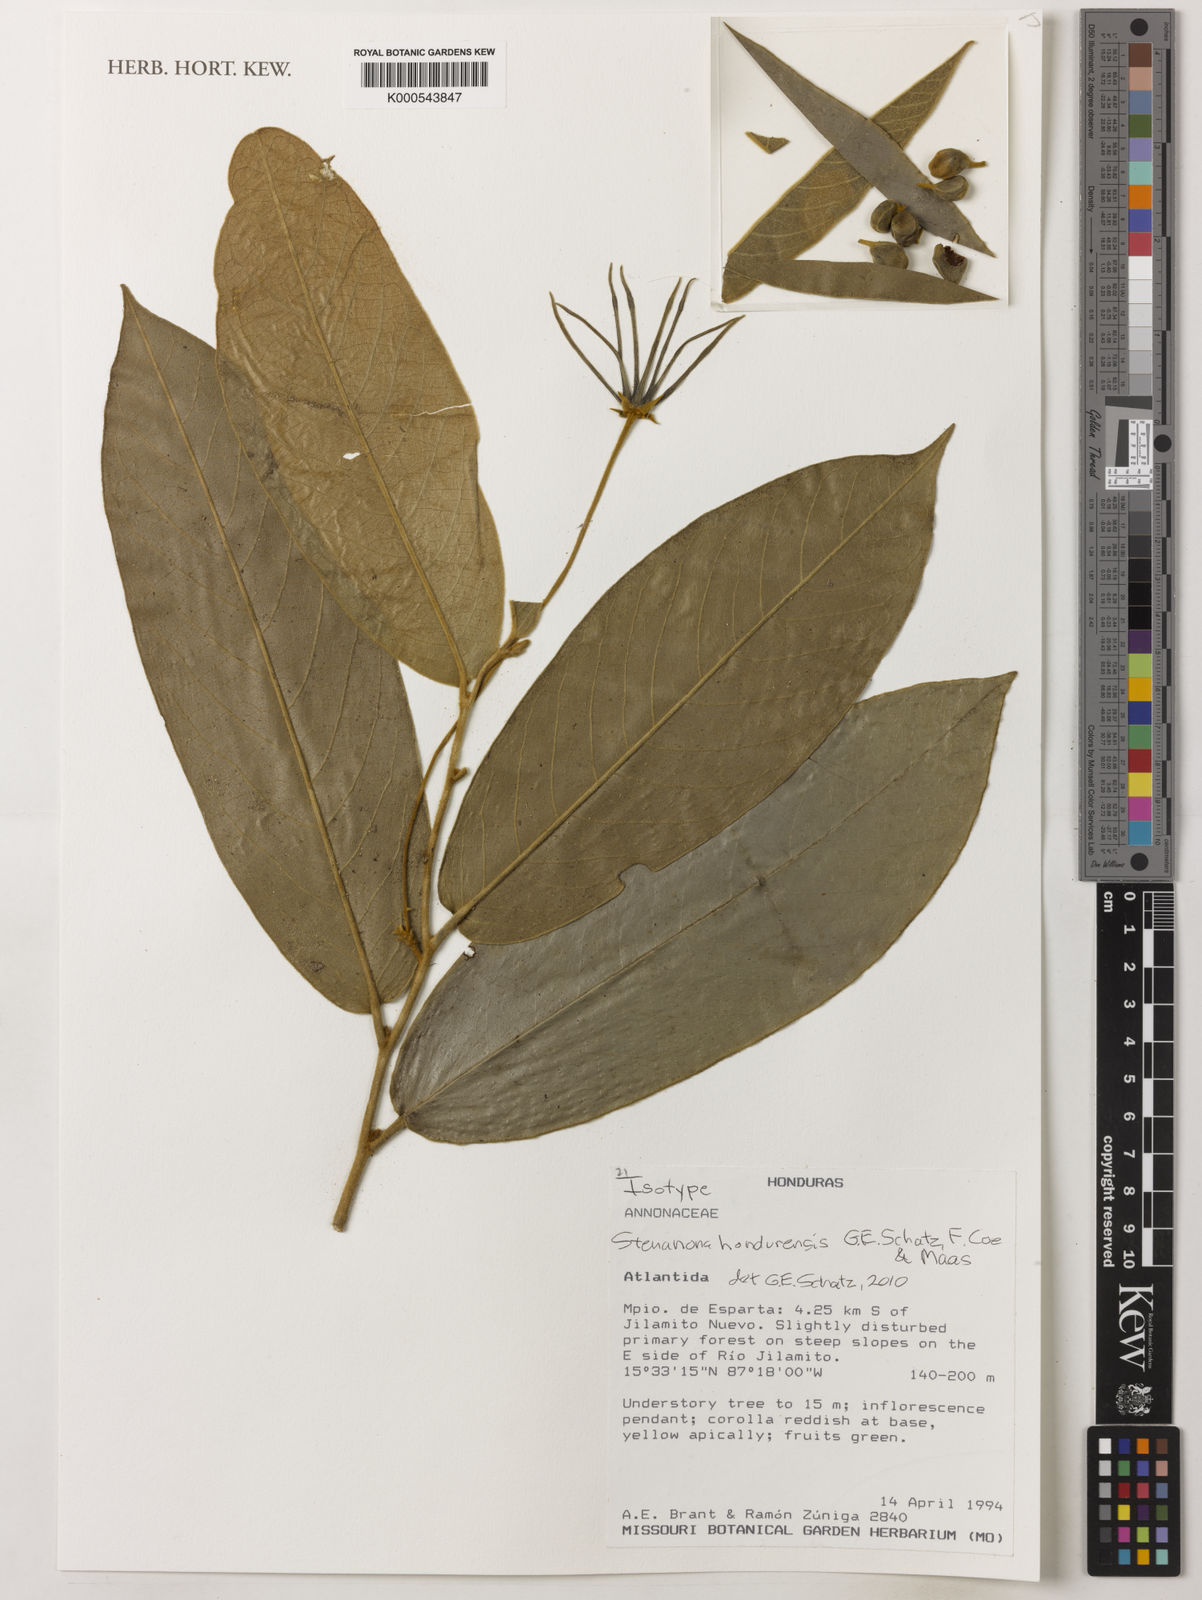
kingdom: Plantae
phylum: Tracheophyta
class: Magnoliopsida
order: Magnoliales
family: Annonaceae
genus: Stenanona
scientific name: Stenanona hondurensis
